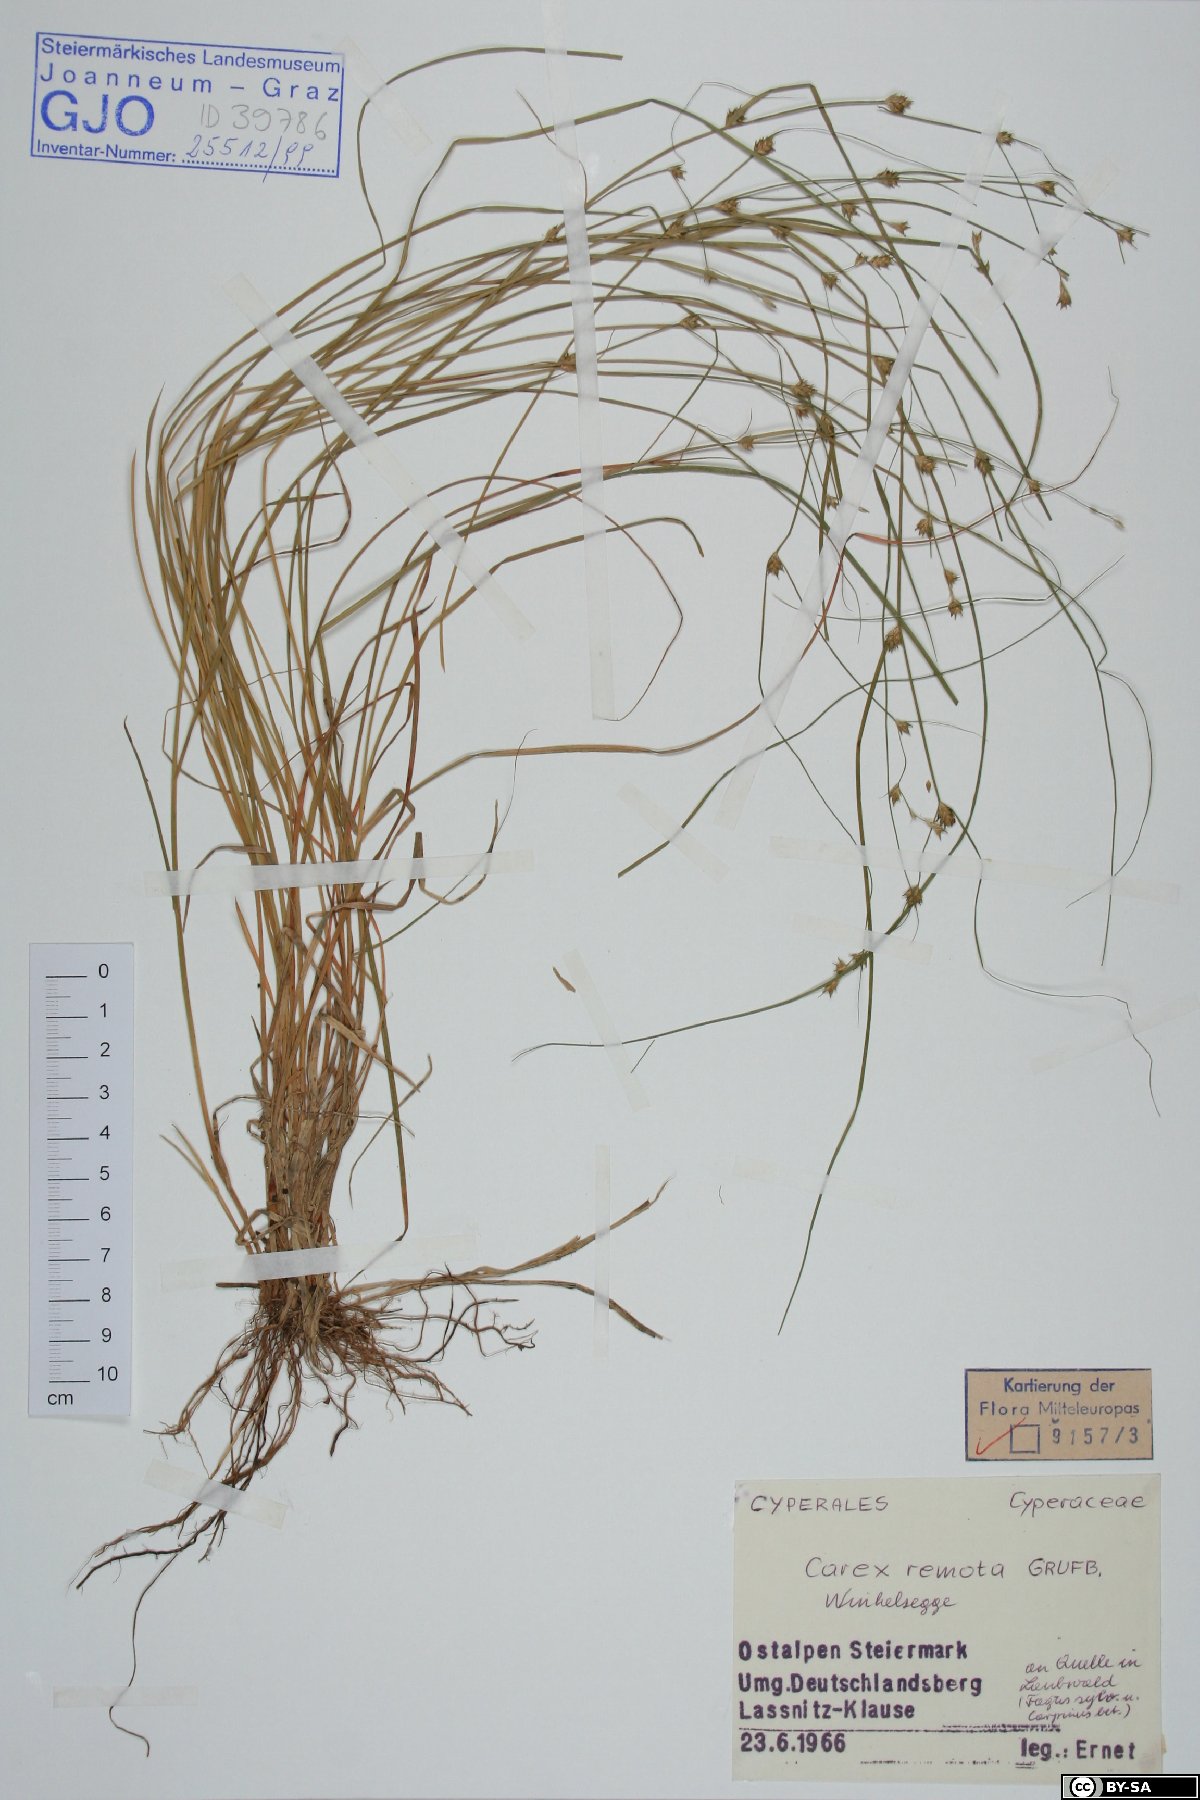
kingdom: Plantae
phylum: Tracheophyta
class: Liliopsida
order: Poales
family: Cyperaceae
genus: Carex
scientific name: Carex remota
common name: Remote sedge
